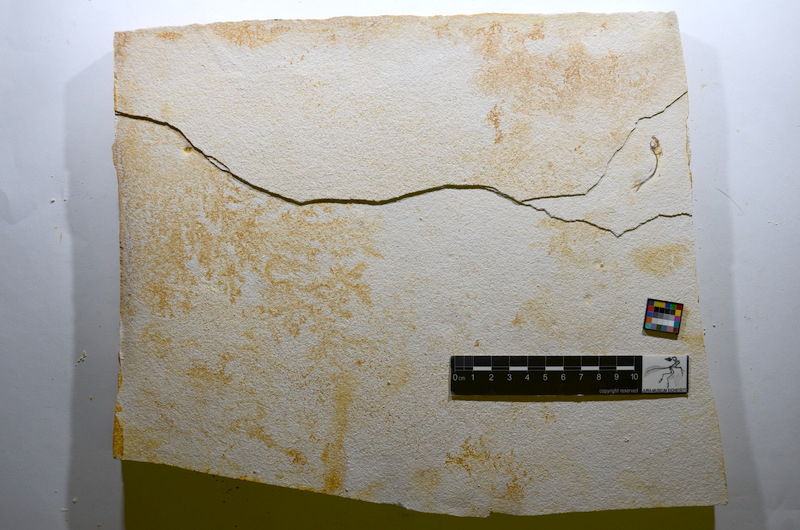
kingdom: Animalia
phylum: Chordata
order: Salmoniformes
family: Orthogonikleithridae
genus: Orthogonikleithrus
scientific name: Orthogonikleithrus hoelli
